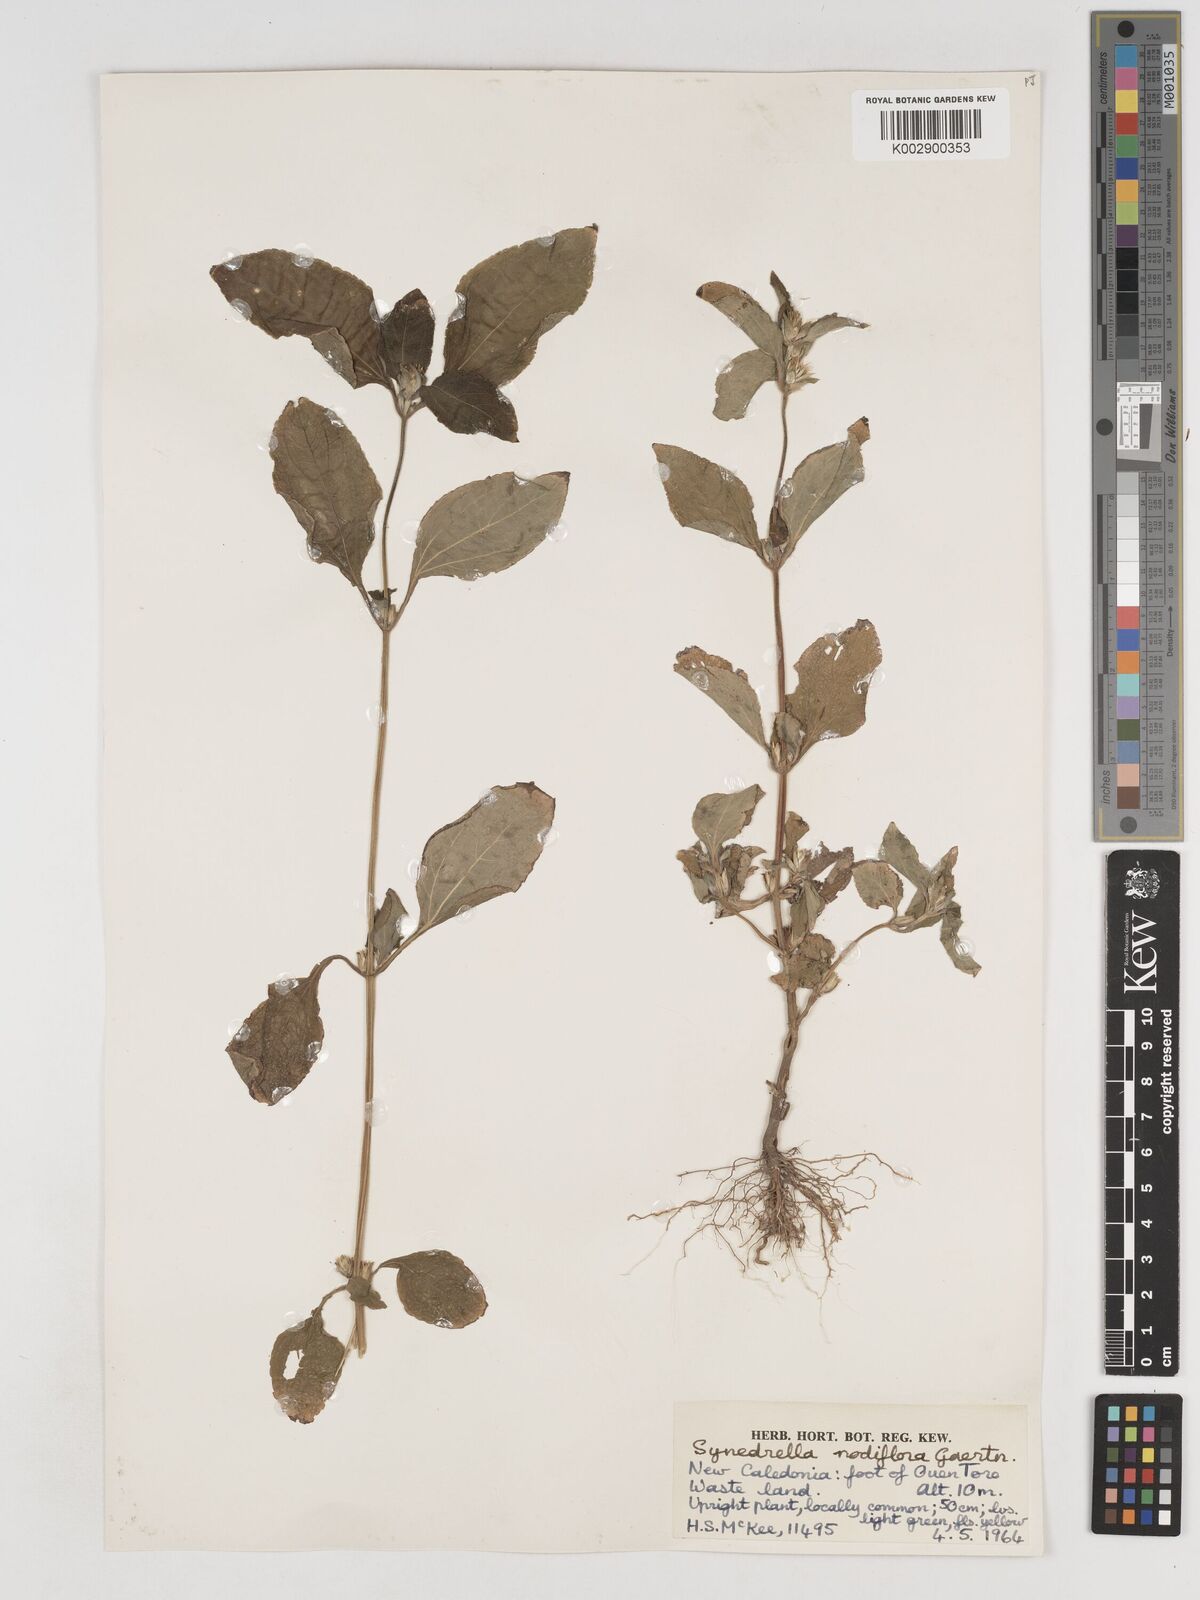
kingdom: Plantae
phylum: Tracheophyta
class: Magnoliopsida
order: Asterales
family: Asteraceae
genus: Synedrella
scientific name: Synedrella nodiflora
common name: Nodeweed
